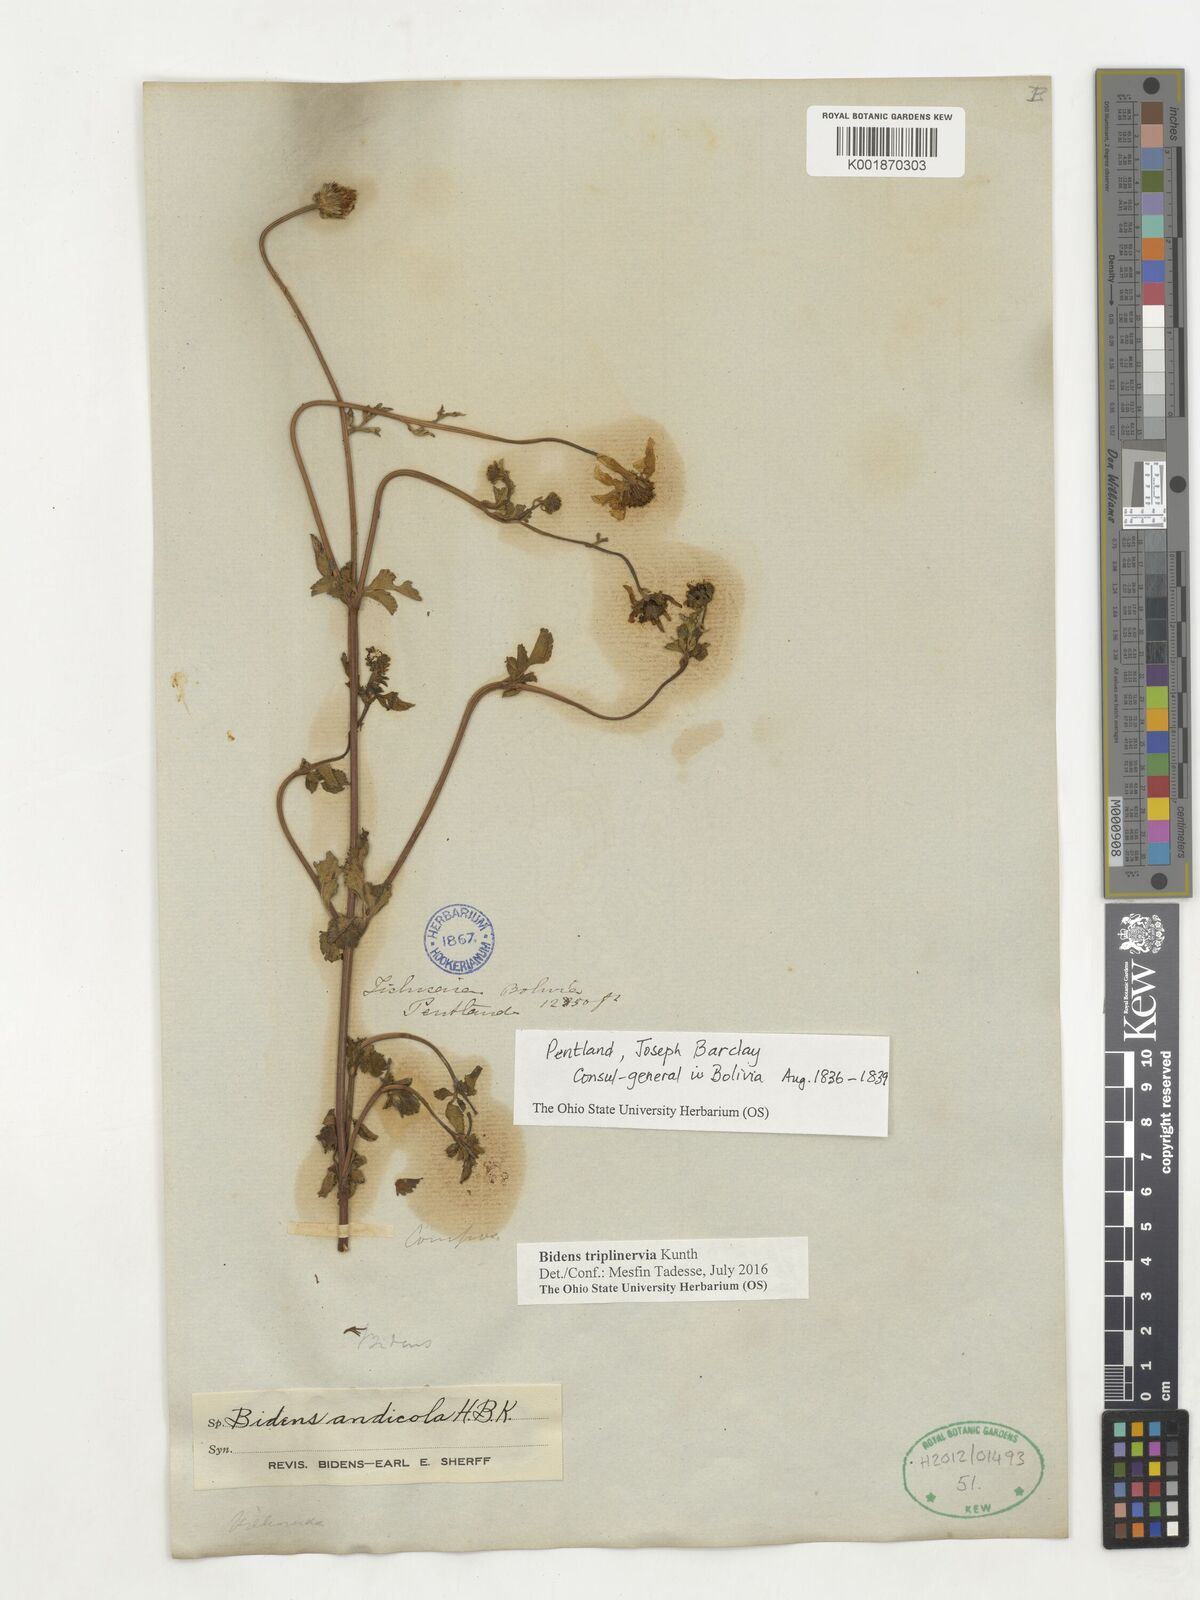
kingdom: Plantae
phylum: Tracheophyta
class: Magnoliopsida
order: Asterales
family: Asteraceae
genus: Bidens
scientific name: Bidens triplinervia
